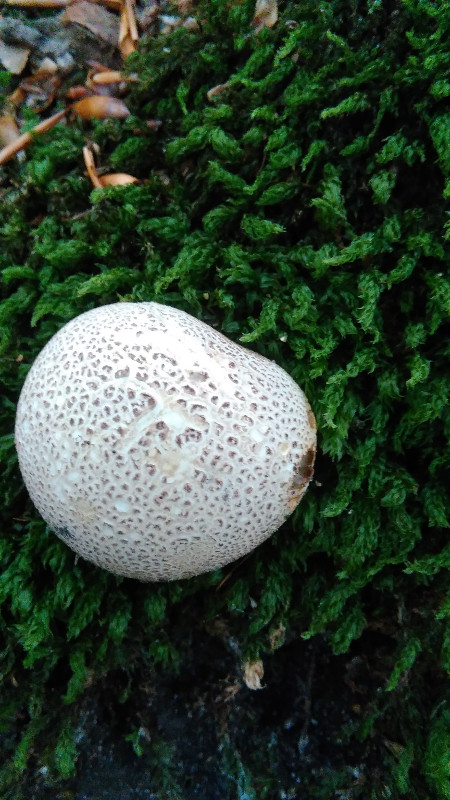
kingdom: Fungi
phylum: Basidiomycota
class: Agaricomycetes
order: Boletales
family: Sclerodermataceae
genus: Scleroderma
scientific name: Scleroderma citrinum
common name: almindelig bruskbold
